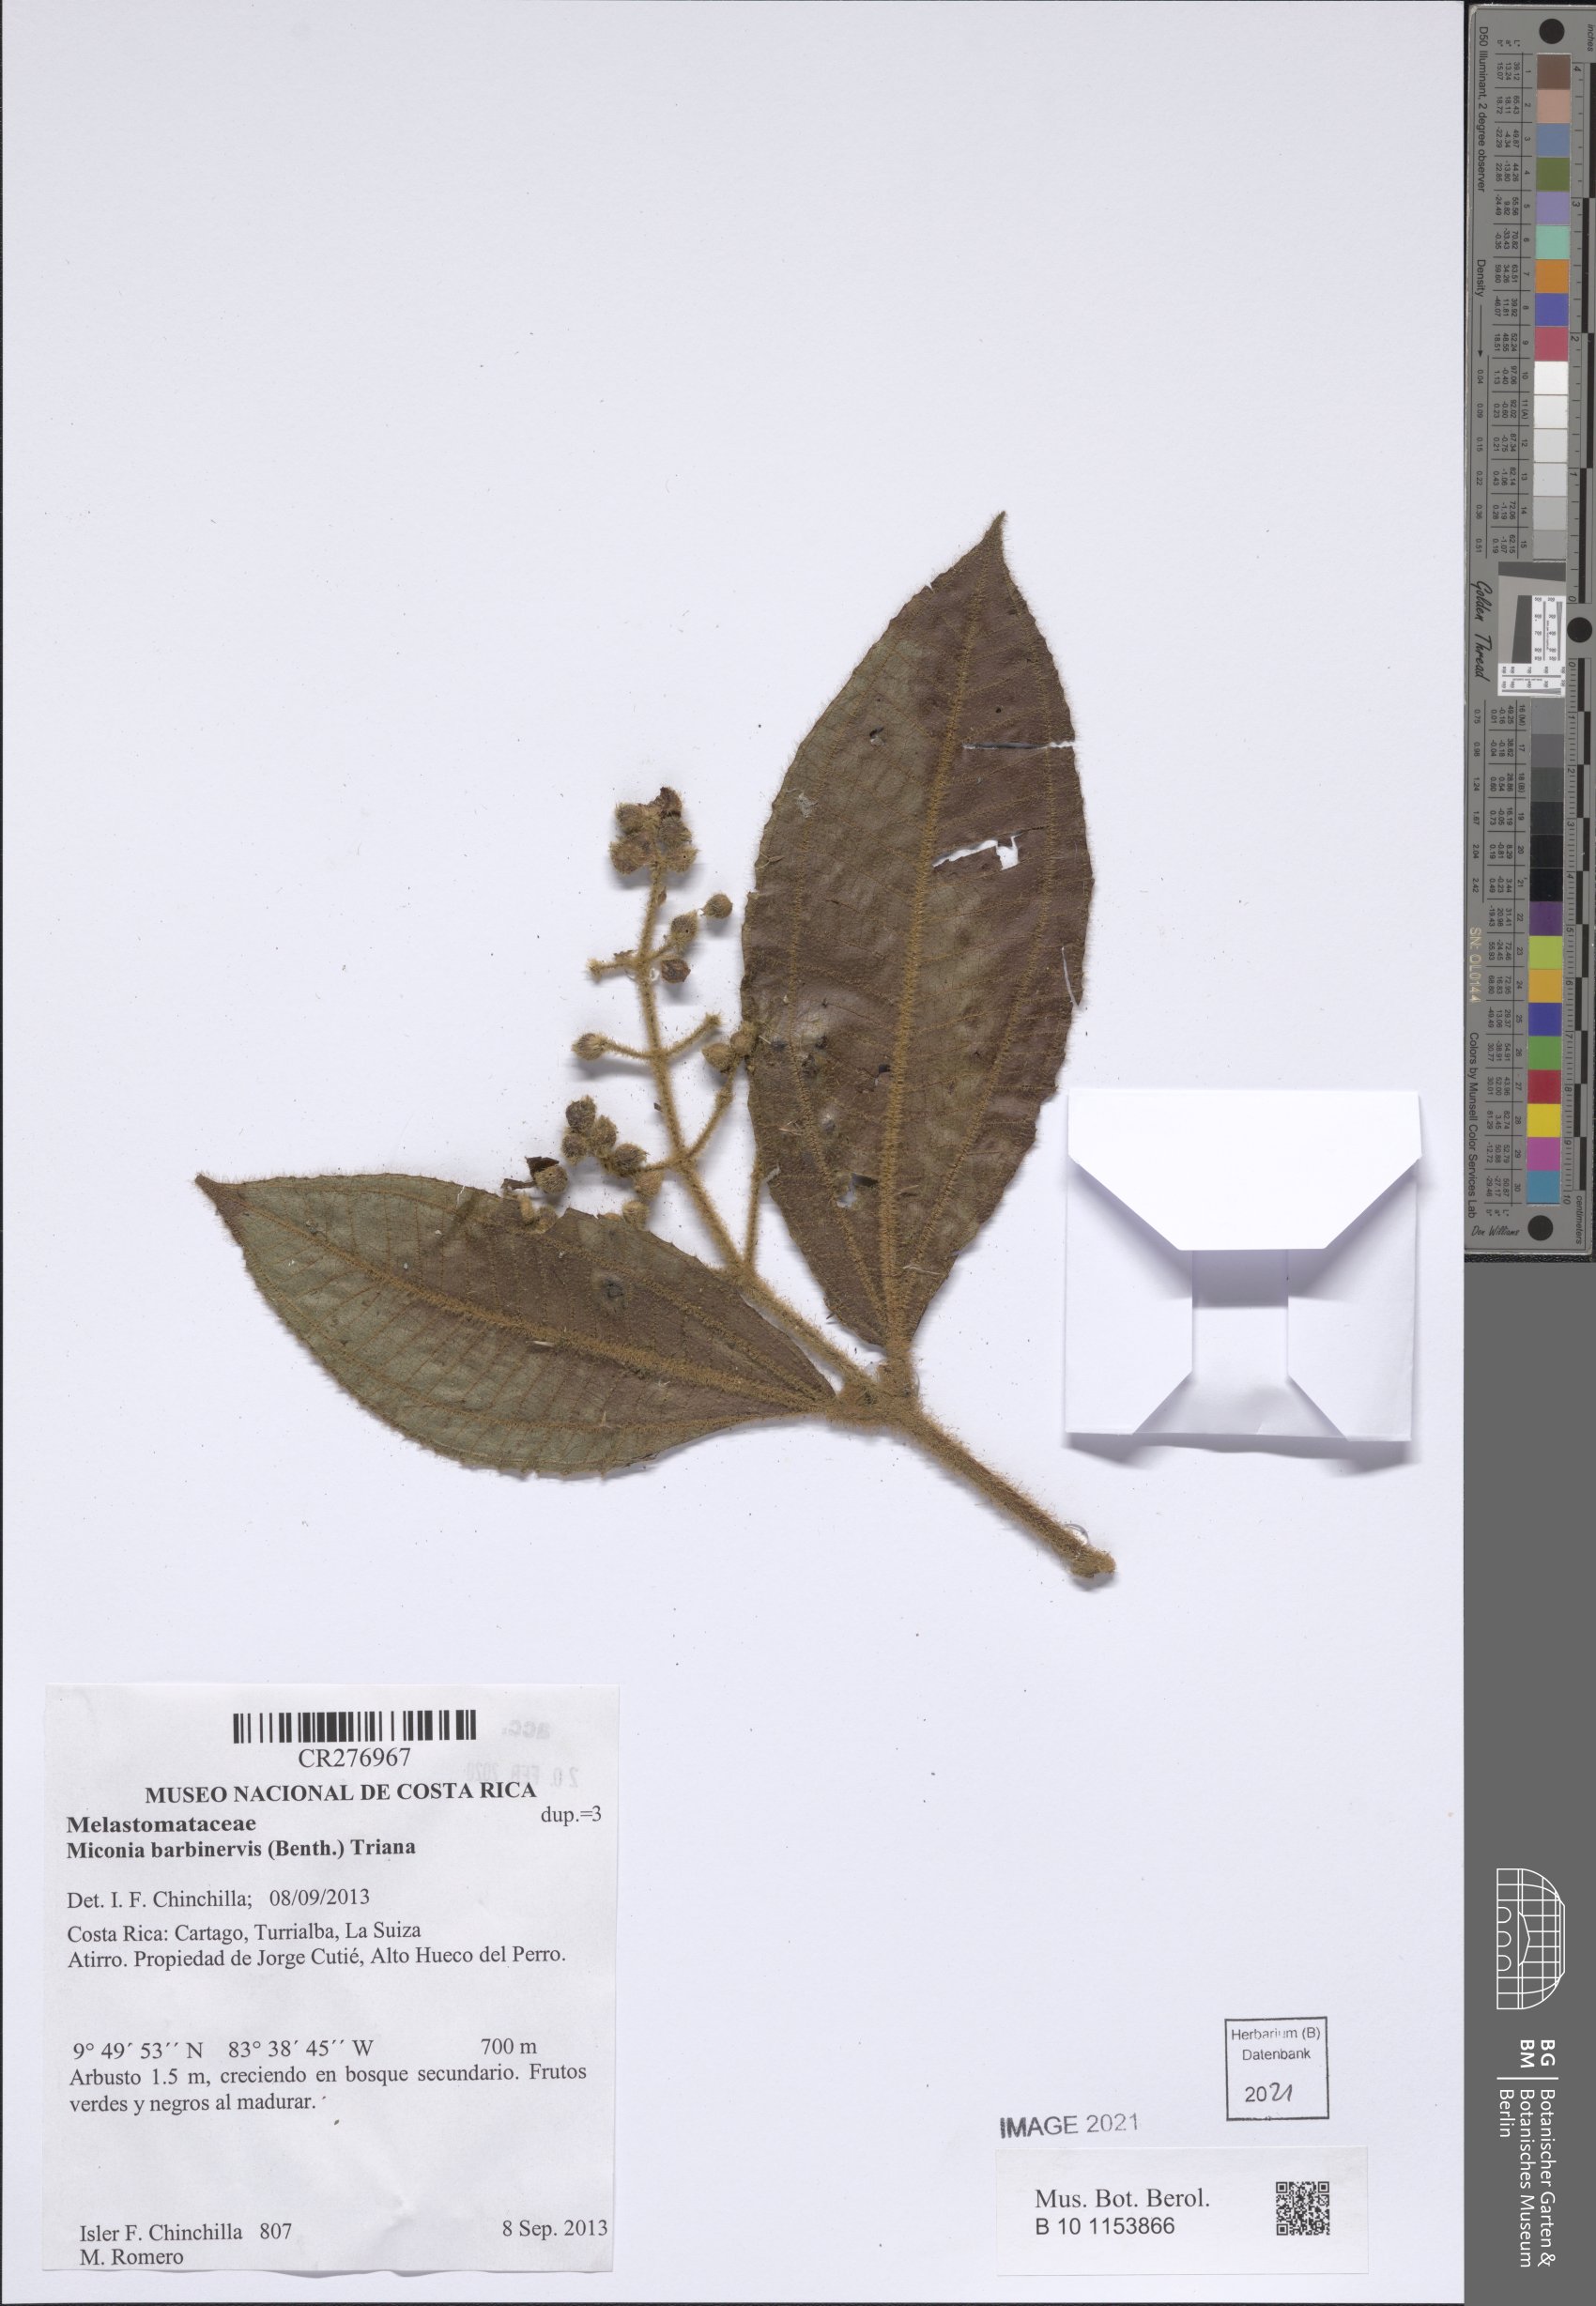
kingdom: Plantae
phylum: Tracheophyta
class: Magnoliopsida
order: Myrtales
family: Melastomataceae
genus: Miconia
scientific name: Miconia barbinervis
